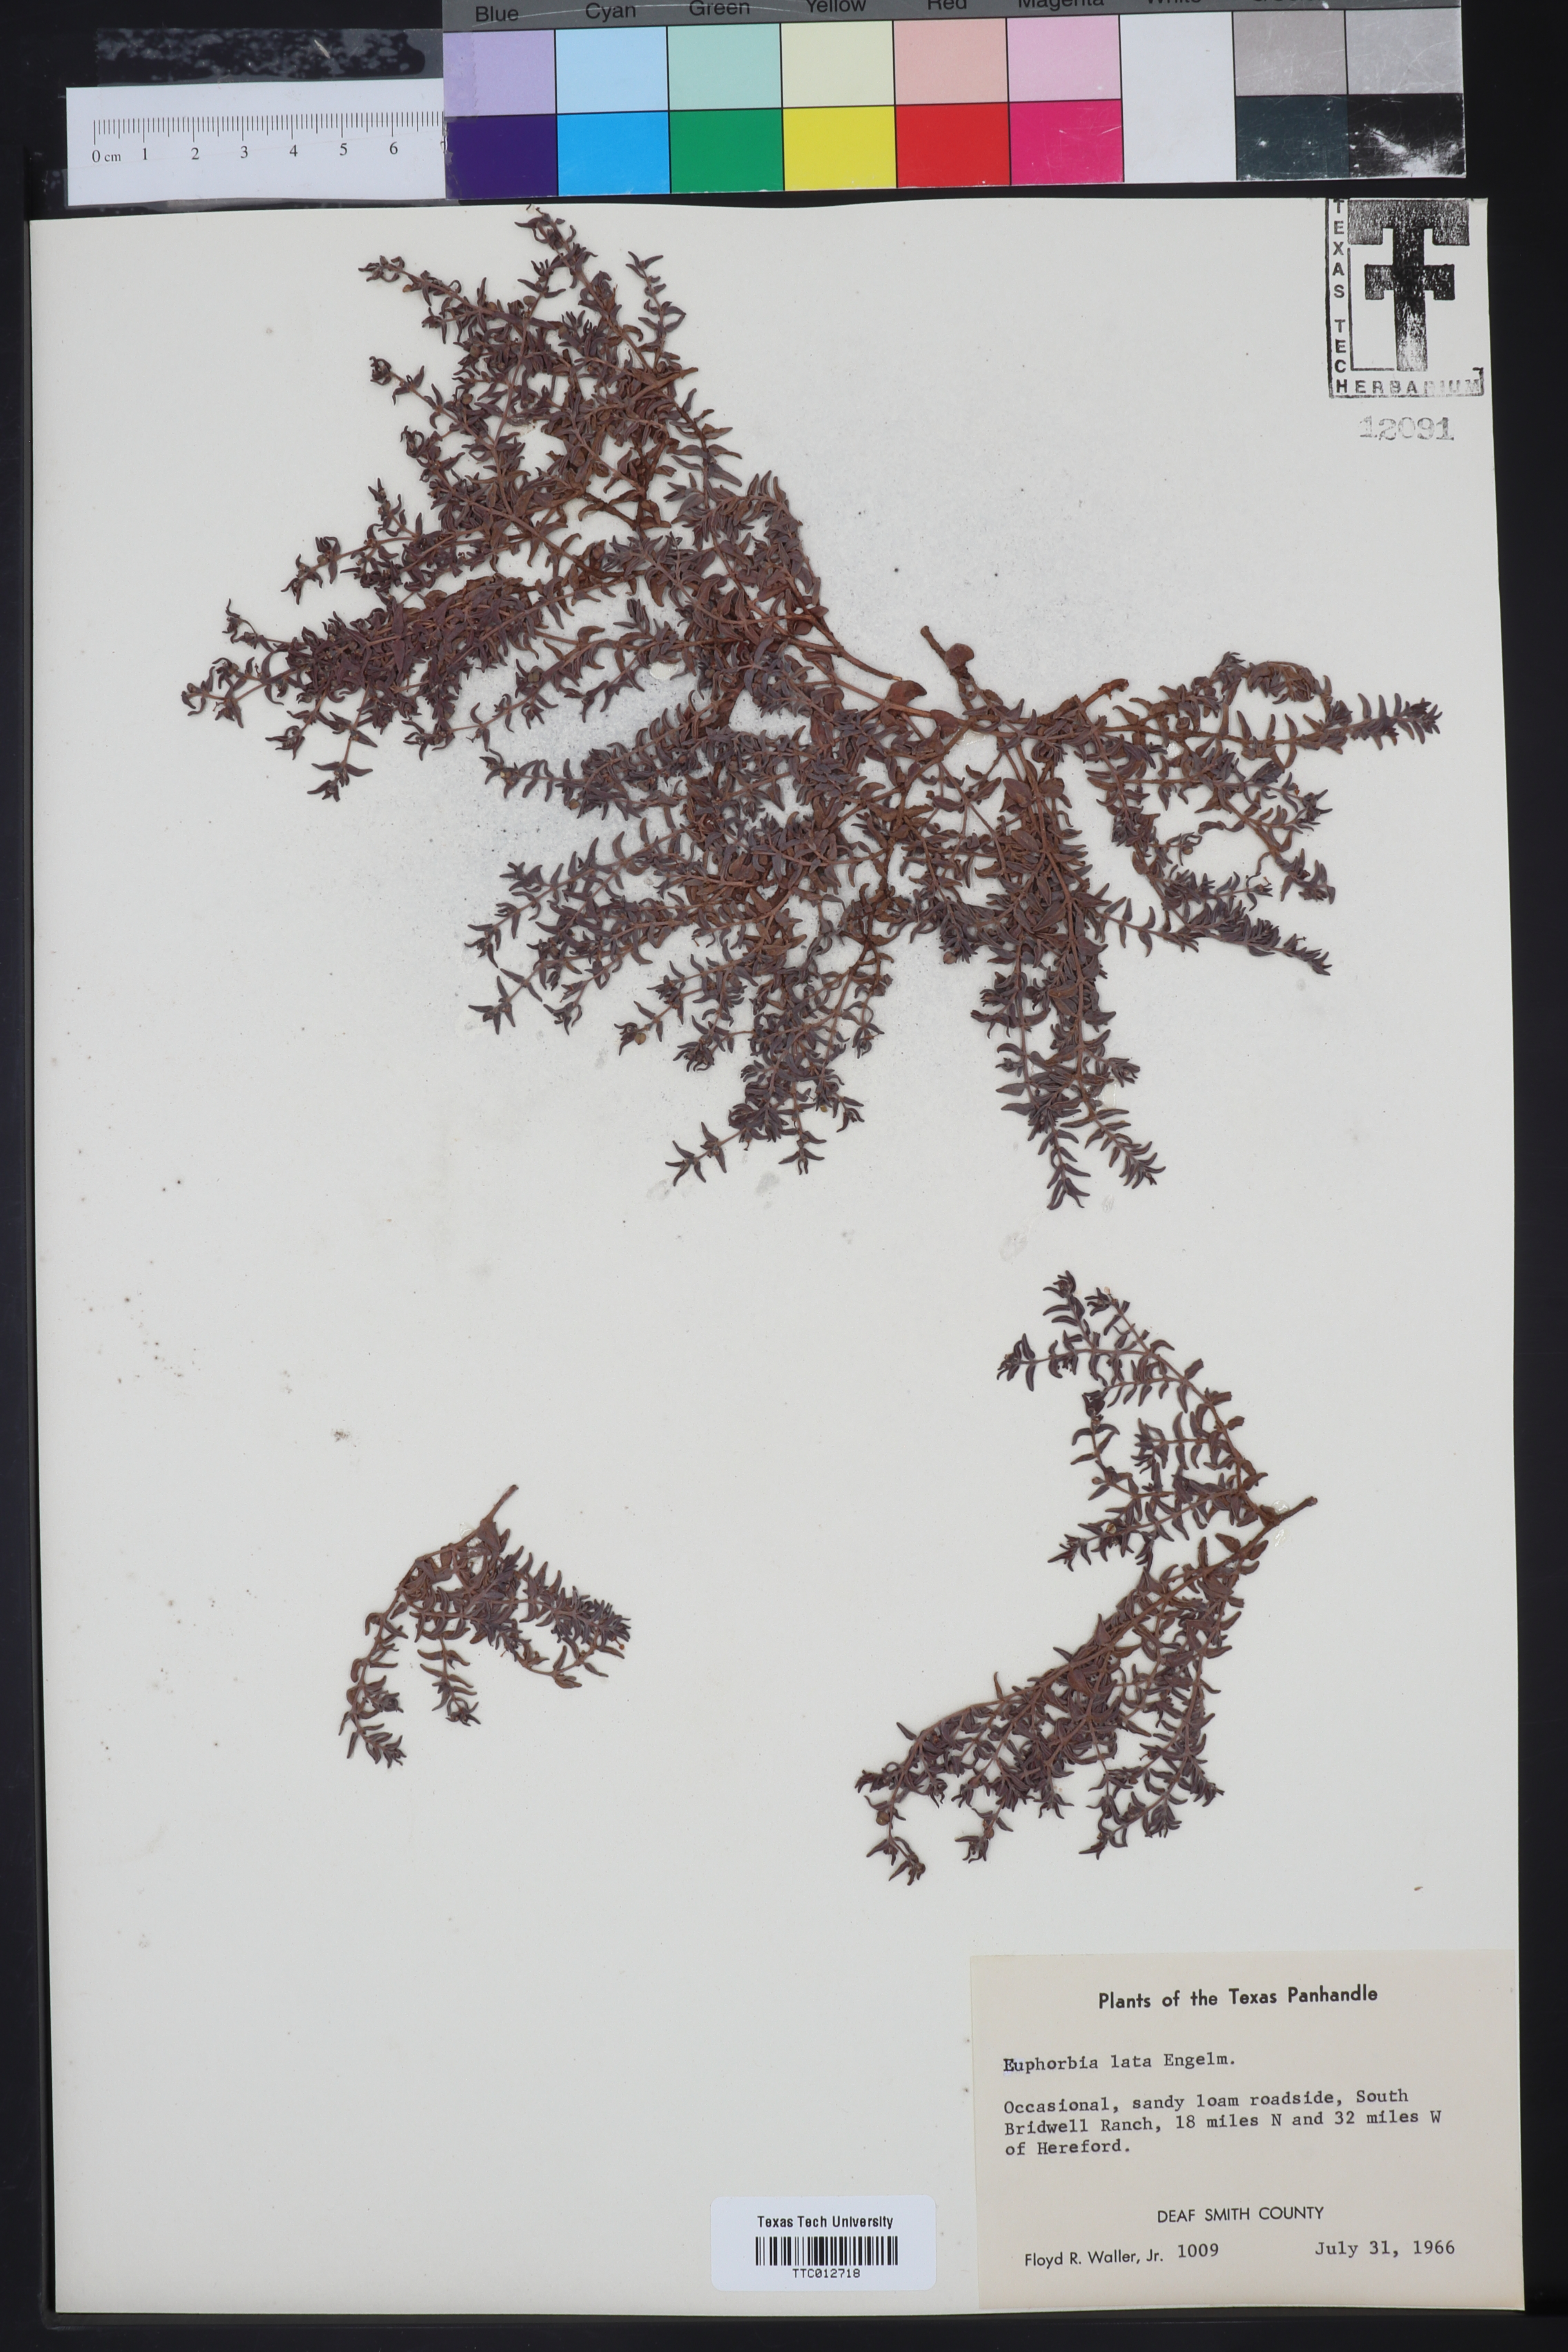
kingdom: Plantae
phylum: Tracheophyta
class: Magnoliopsida
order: Malpighiales
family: Euphorbiaceae
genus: Euphorbia
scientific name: Euphorbia lata
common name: Hoary euphorbia
